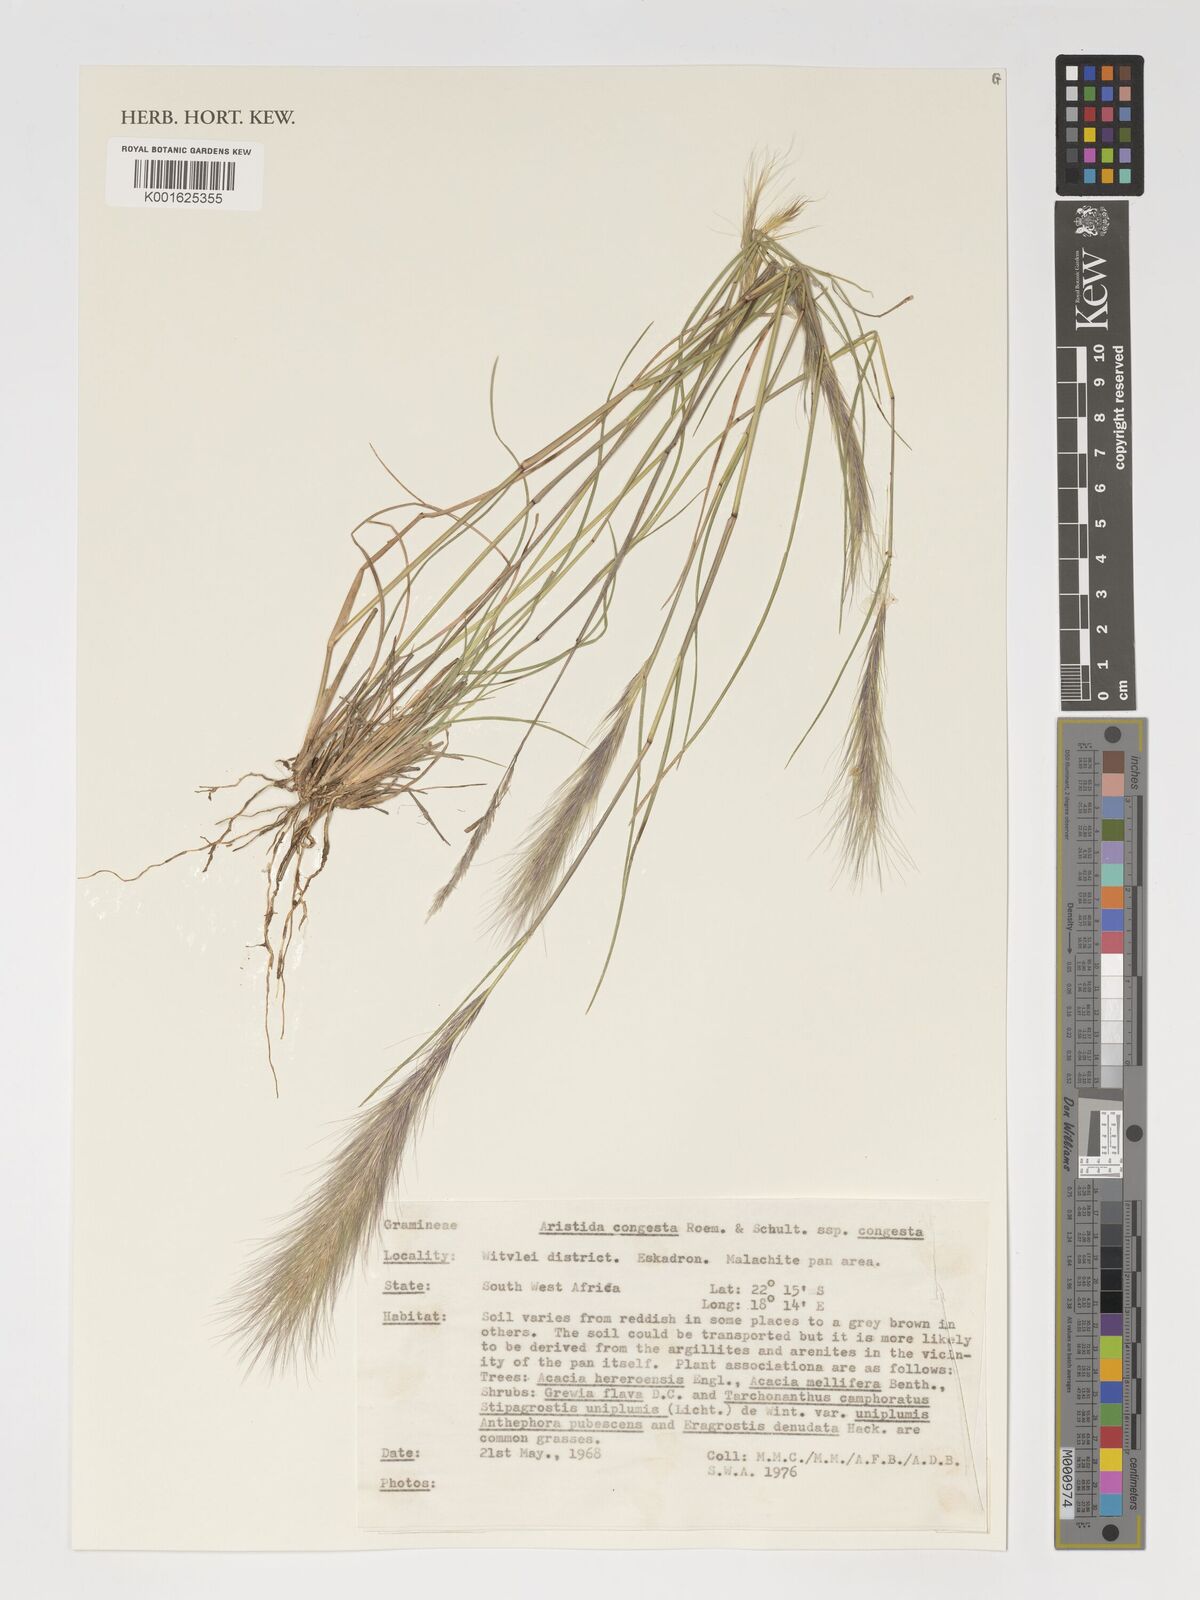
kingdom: Plantae
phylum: Tracheophyta
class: Liliopsida
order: Poales
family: Poaceae
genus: Aristida
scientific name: Aristida congesta
